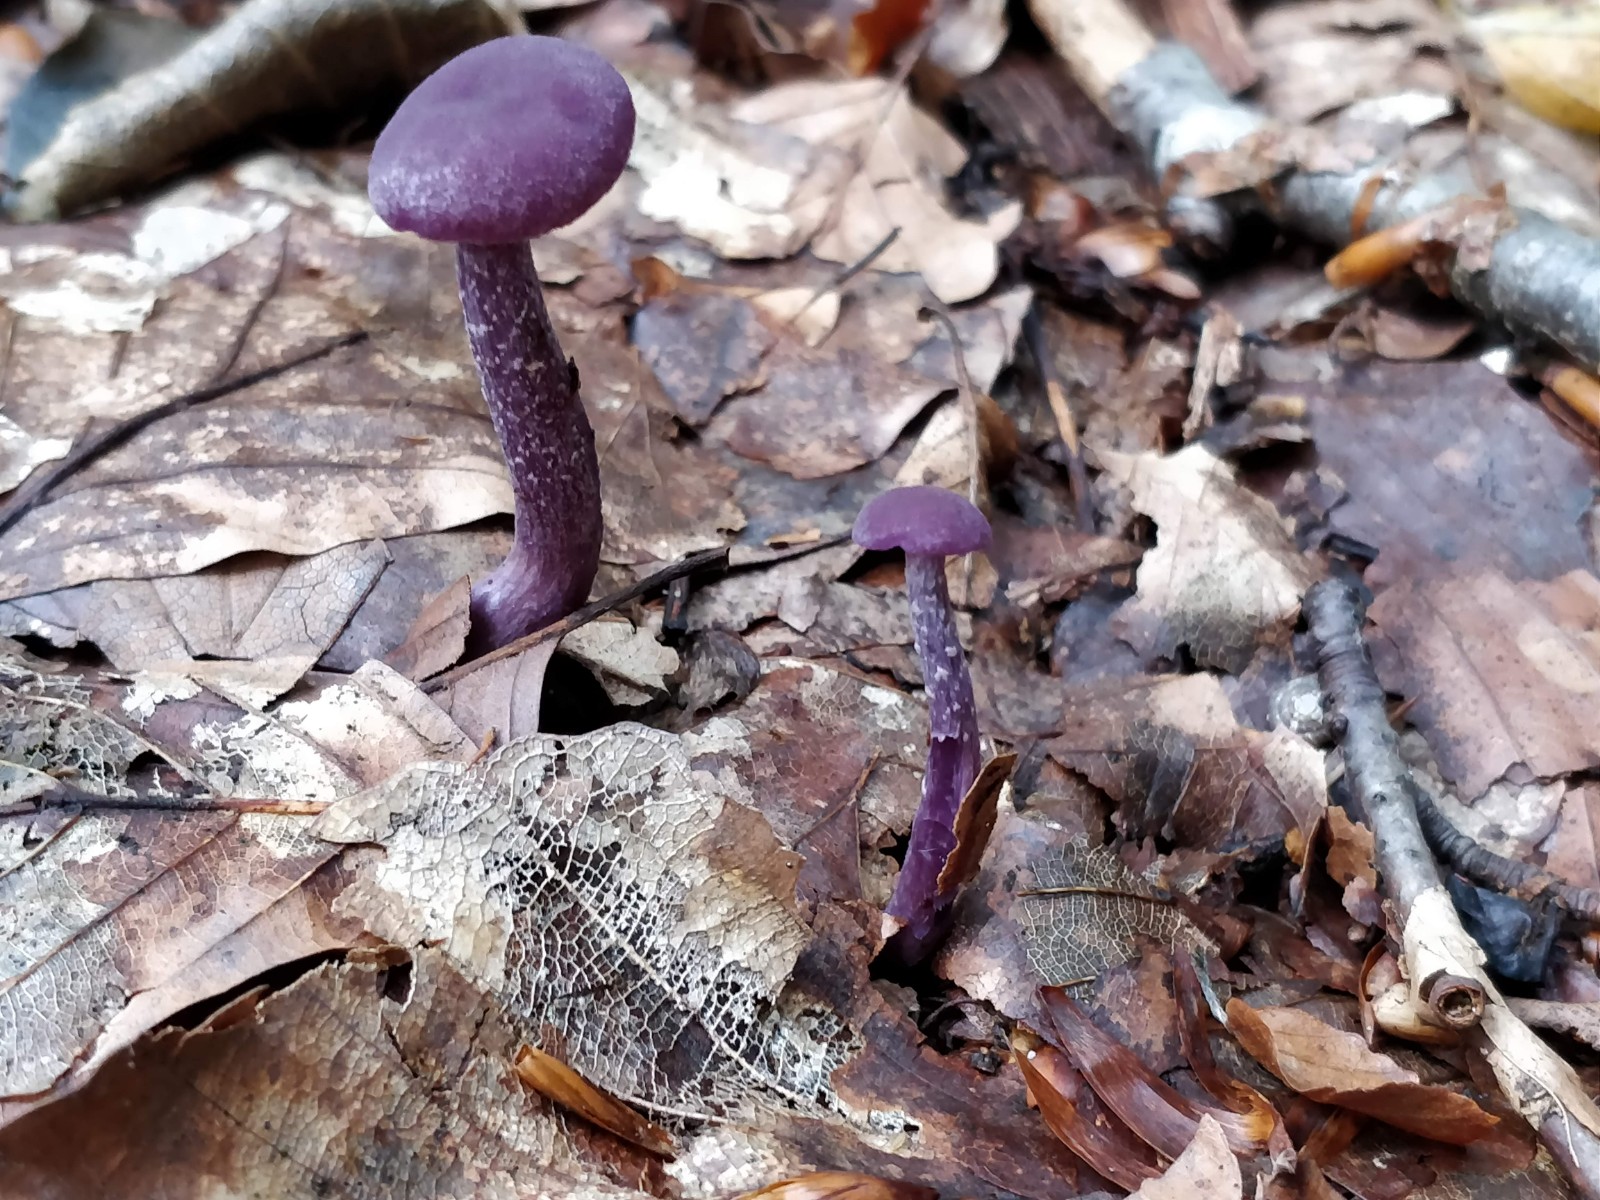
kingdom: Fungi
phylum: Basidiomycota
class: Agaricomycetes
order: Agaricales
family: Hydnangiaceae
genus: Laccaria
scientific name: Laccaria amethystina
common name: violet ametysthat
